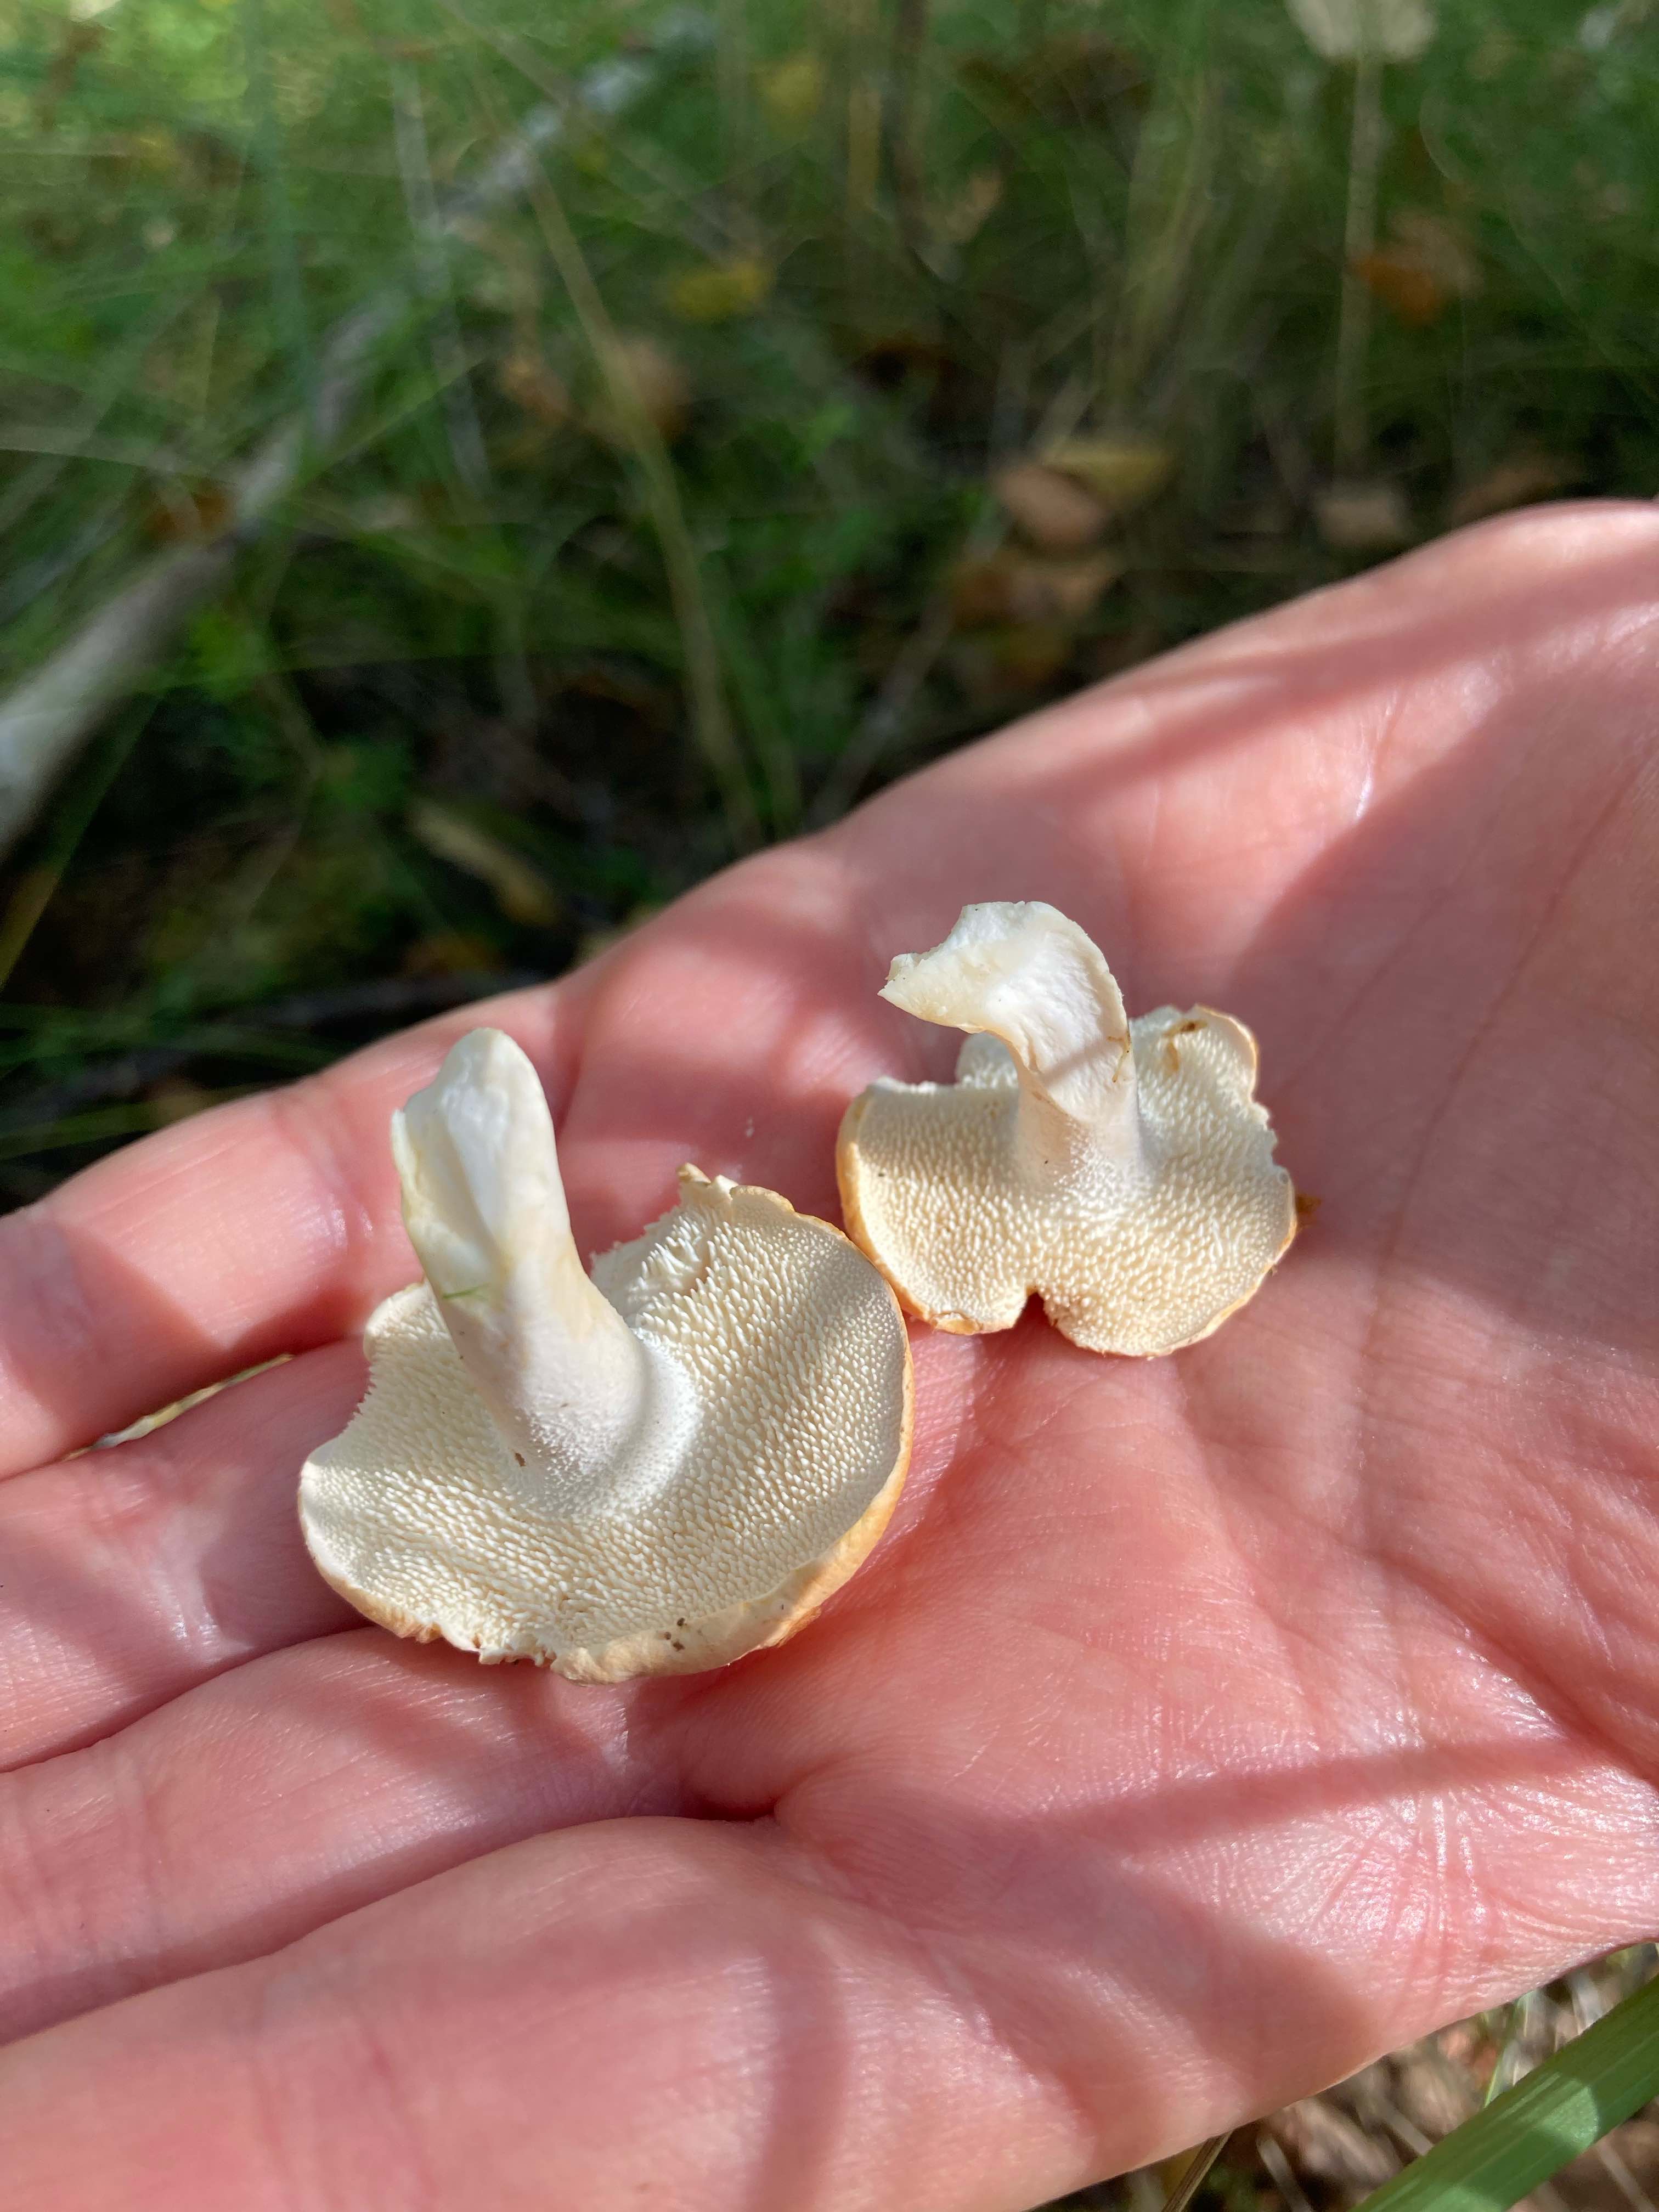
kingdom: Fungi
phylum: Basidiomycota
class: Agaricomycetes
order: Cantharellales
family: Hydnaceae
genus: Hydnum
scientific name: Hydnum
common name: pigsvamp
